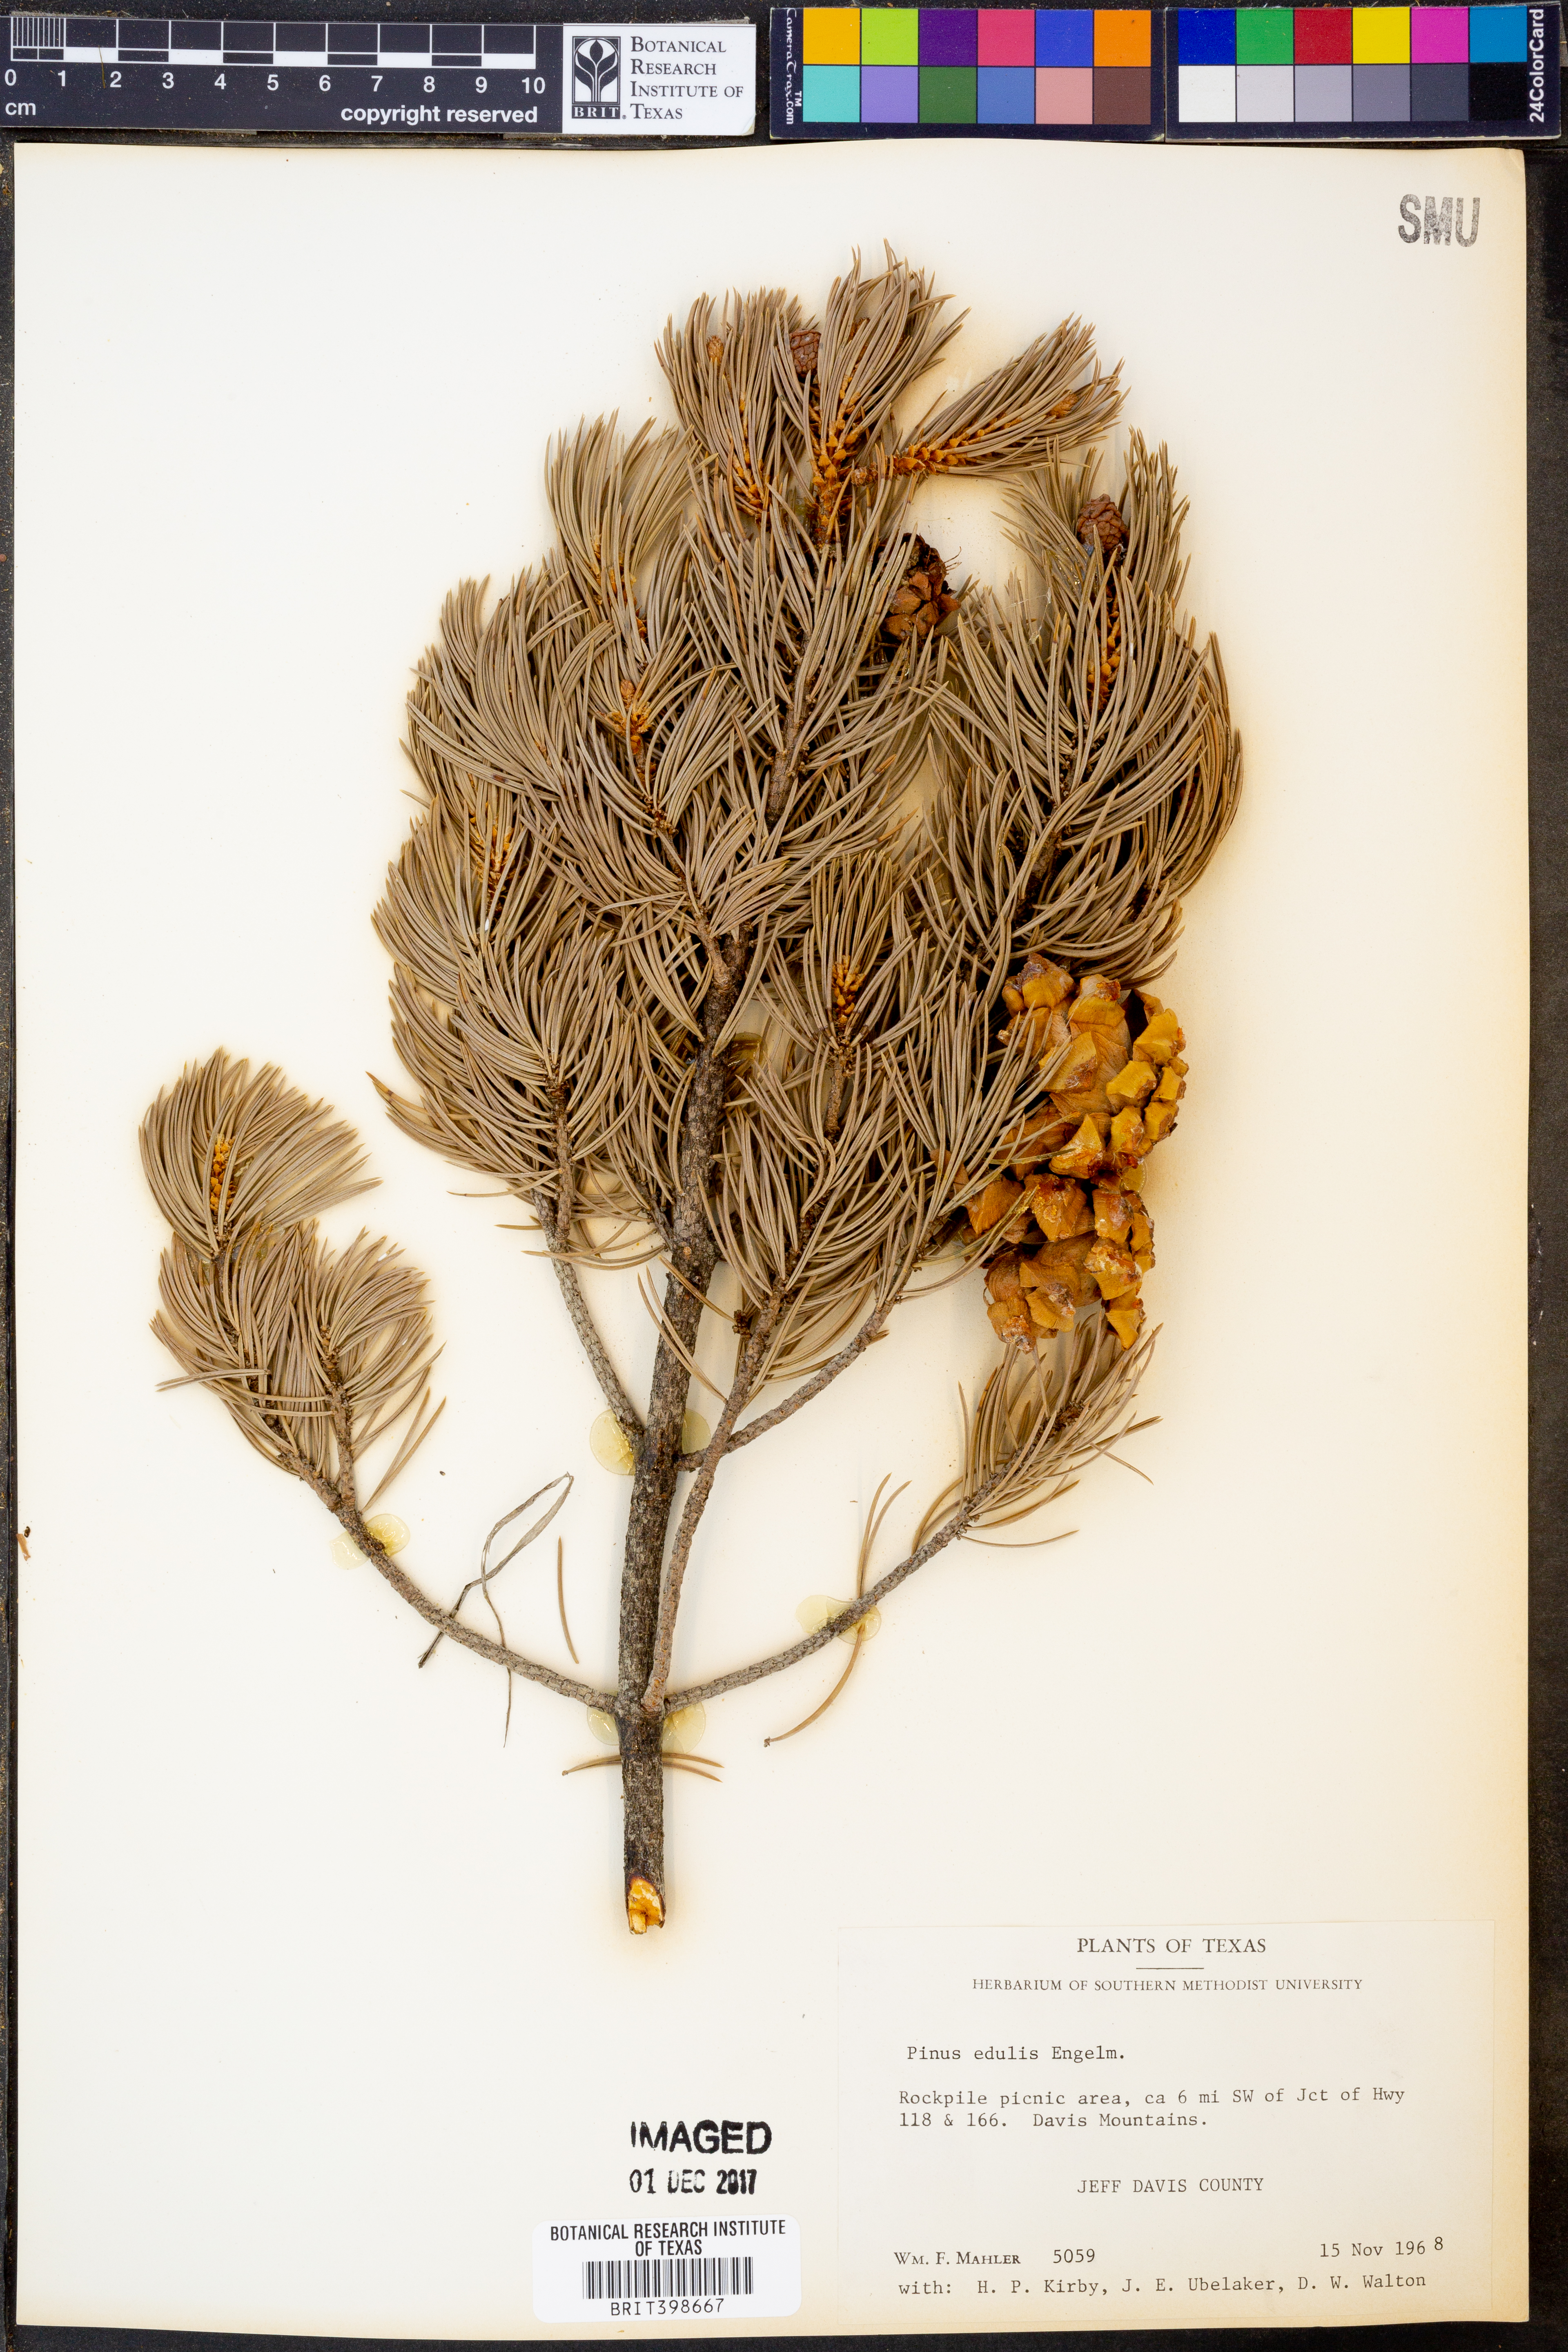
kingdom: Plantae
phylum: Tracheophyta
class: Pinopsida
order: Pinales
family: Pinaceae
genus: Pinus
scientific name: Pinus edulis
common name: Colorado pinyon
